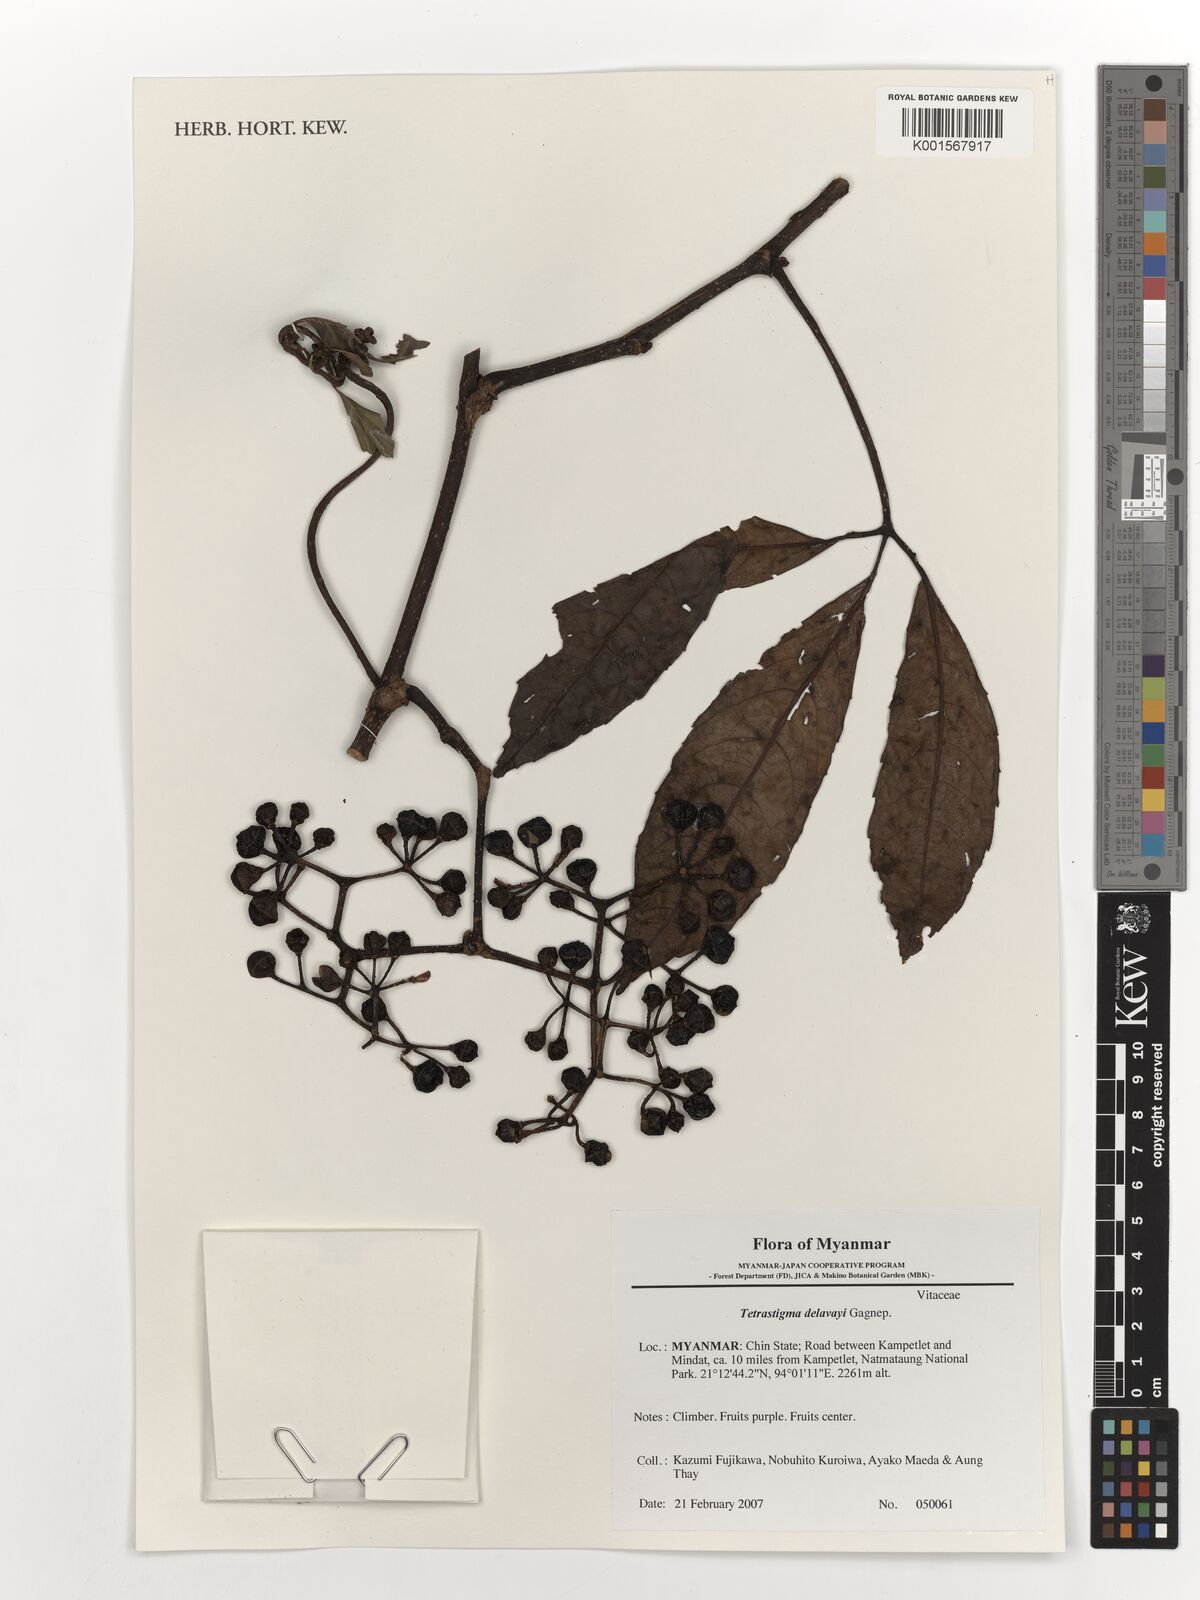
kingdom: Plantae
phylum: Tracheophyta
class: Magnoliopsida
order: Vitales
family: Vitaceae
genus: Tetrastigma
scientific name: Tetrastigma delavayi
